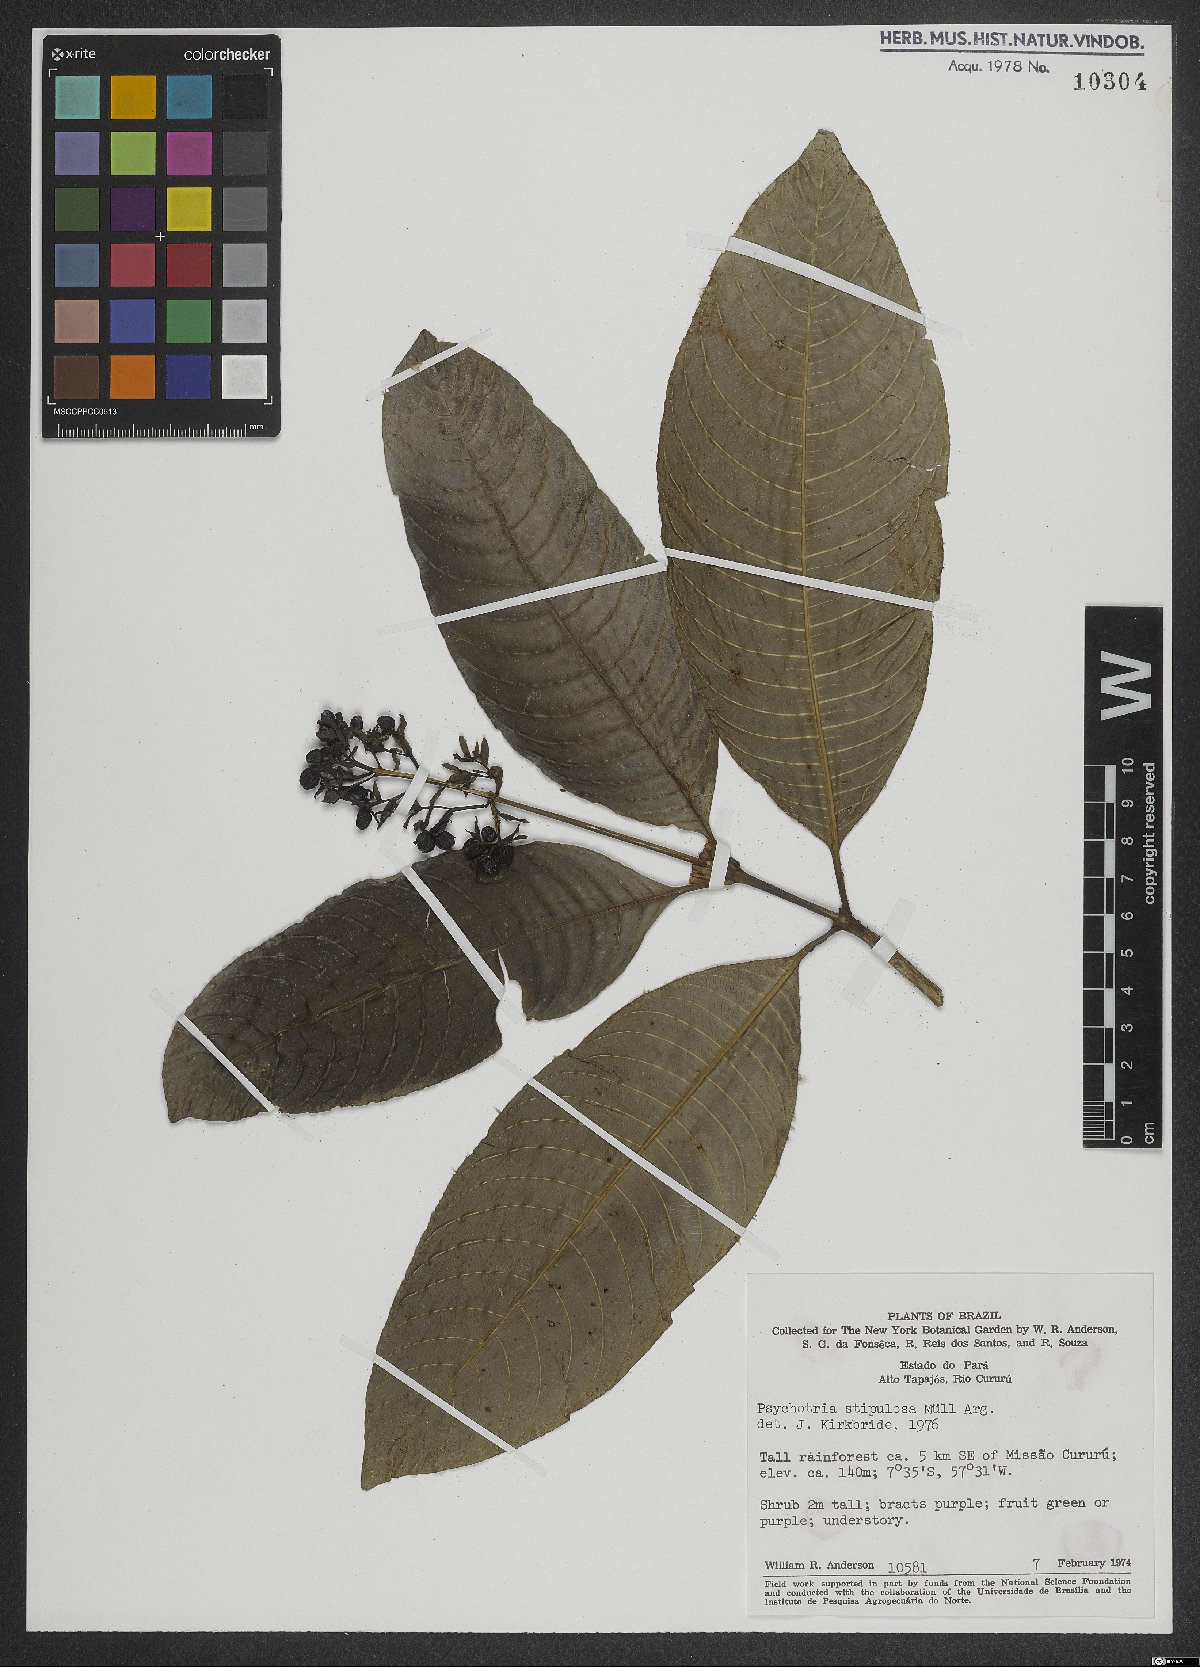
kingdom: Plantae
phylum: Tracheophyta
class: Magnoliopsida
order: Gentianales
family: Rubiaceae
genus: Palicourea
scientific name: Palicourea stipulosa
